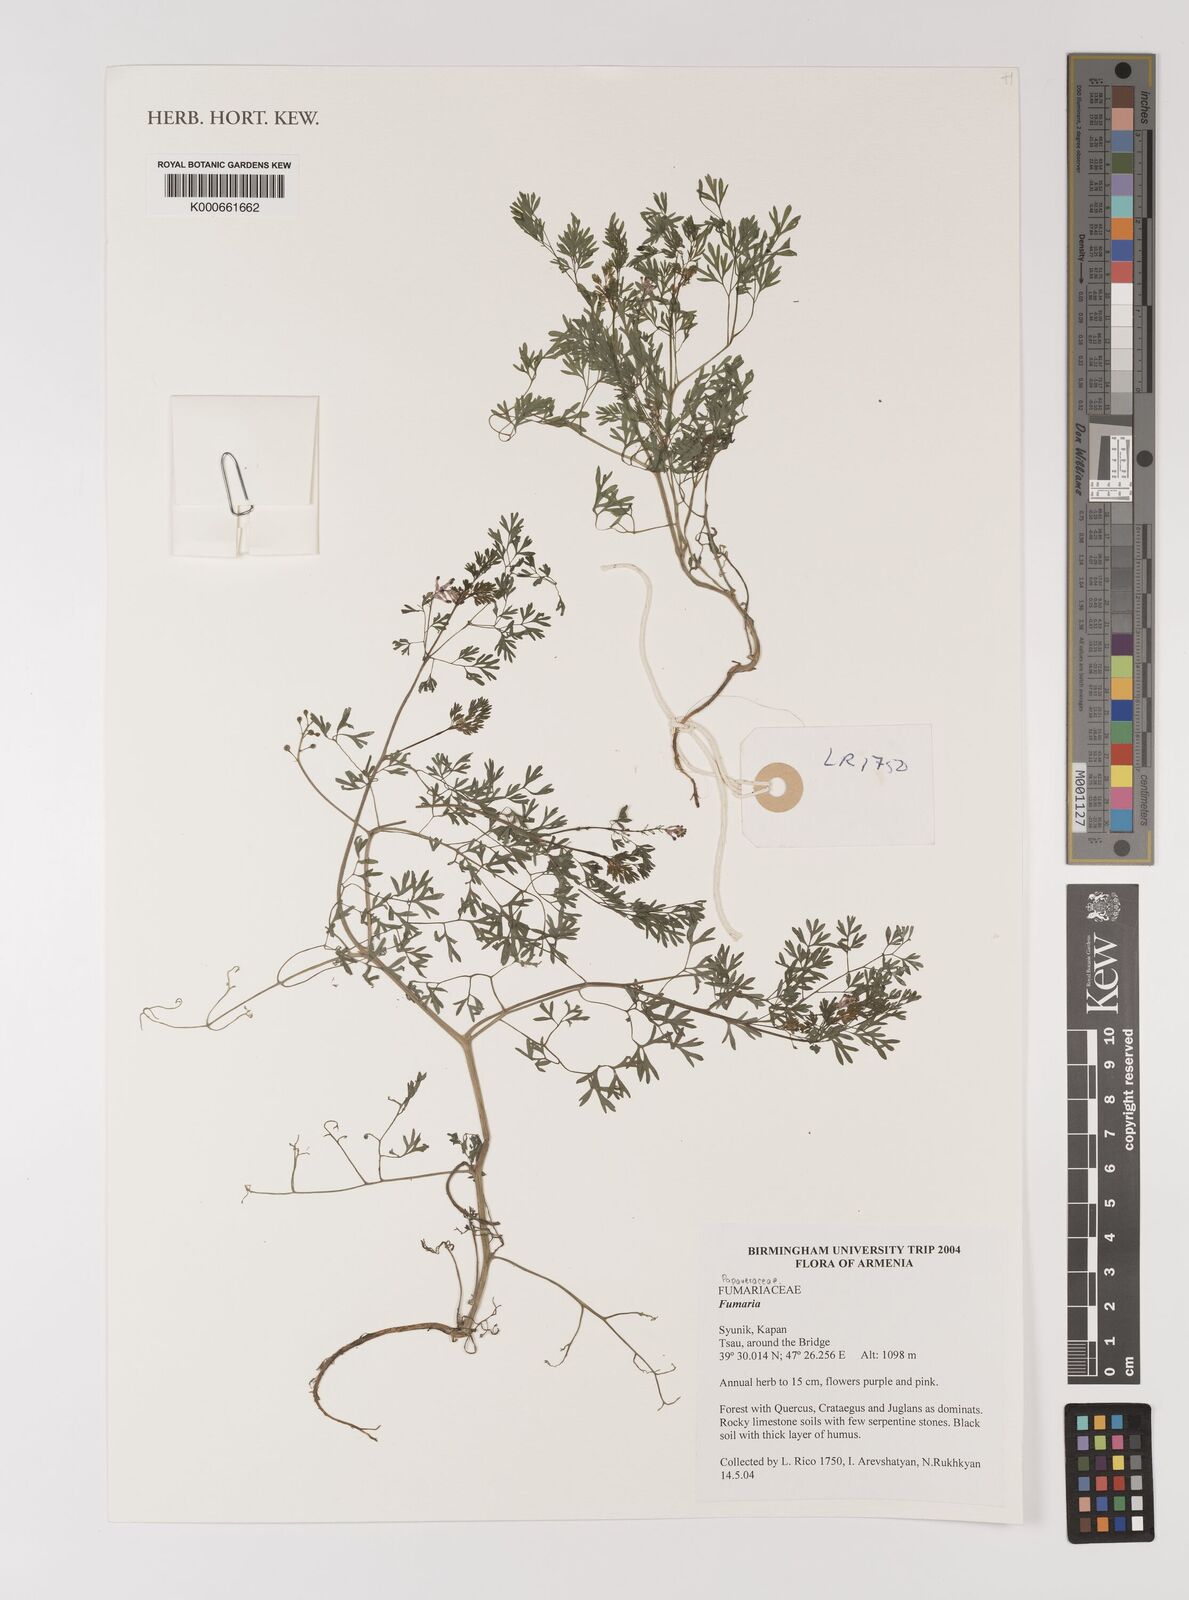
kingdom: Plantae
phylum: Tracheophyta
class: Magnoliopsida
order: Ranunculales
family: Papaveraceae
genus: Fumaria
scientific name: Fumaria
